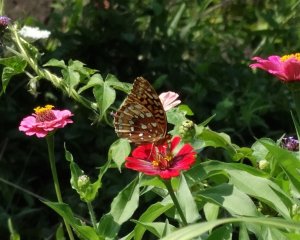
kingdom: Animalia
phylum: Arthropoda
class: Insecta
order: Lepidoptera
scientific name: Lepidoptera
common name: Butterflies
